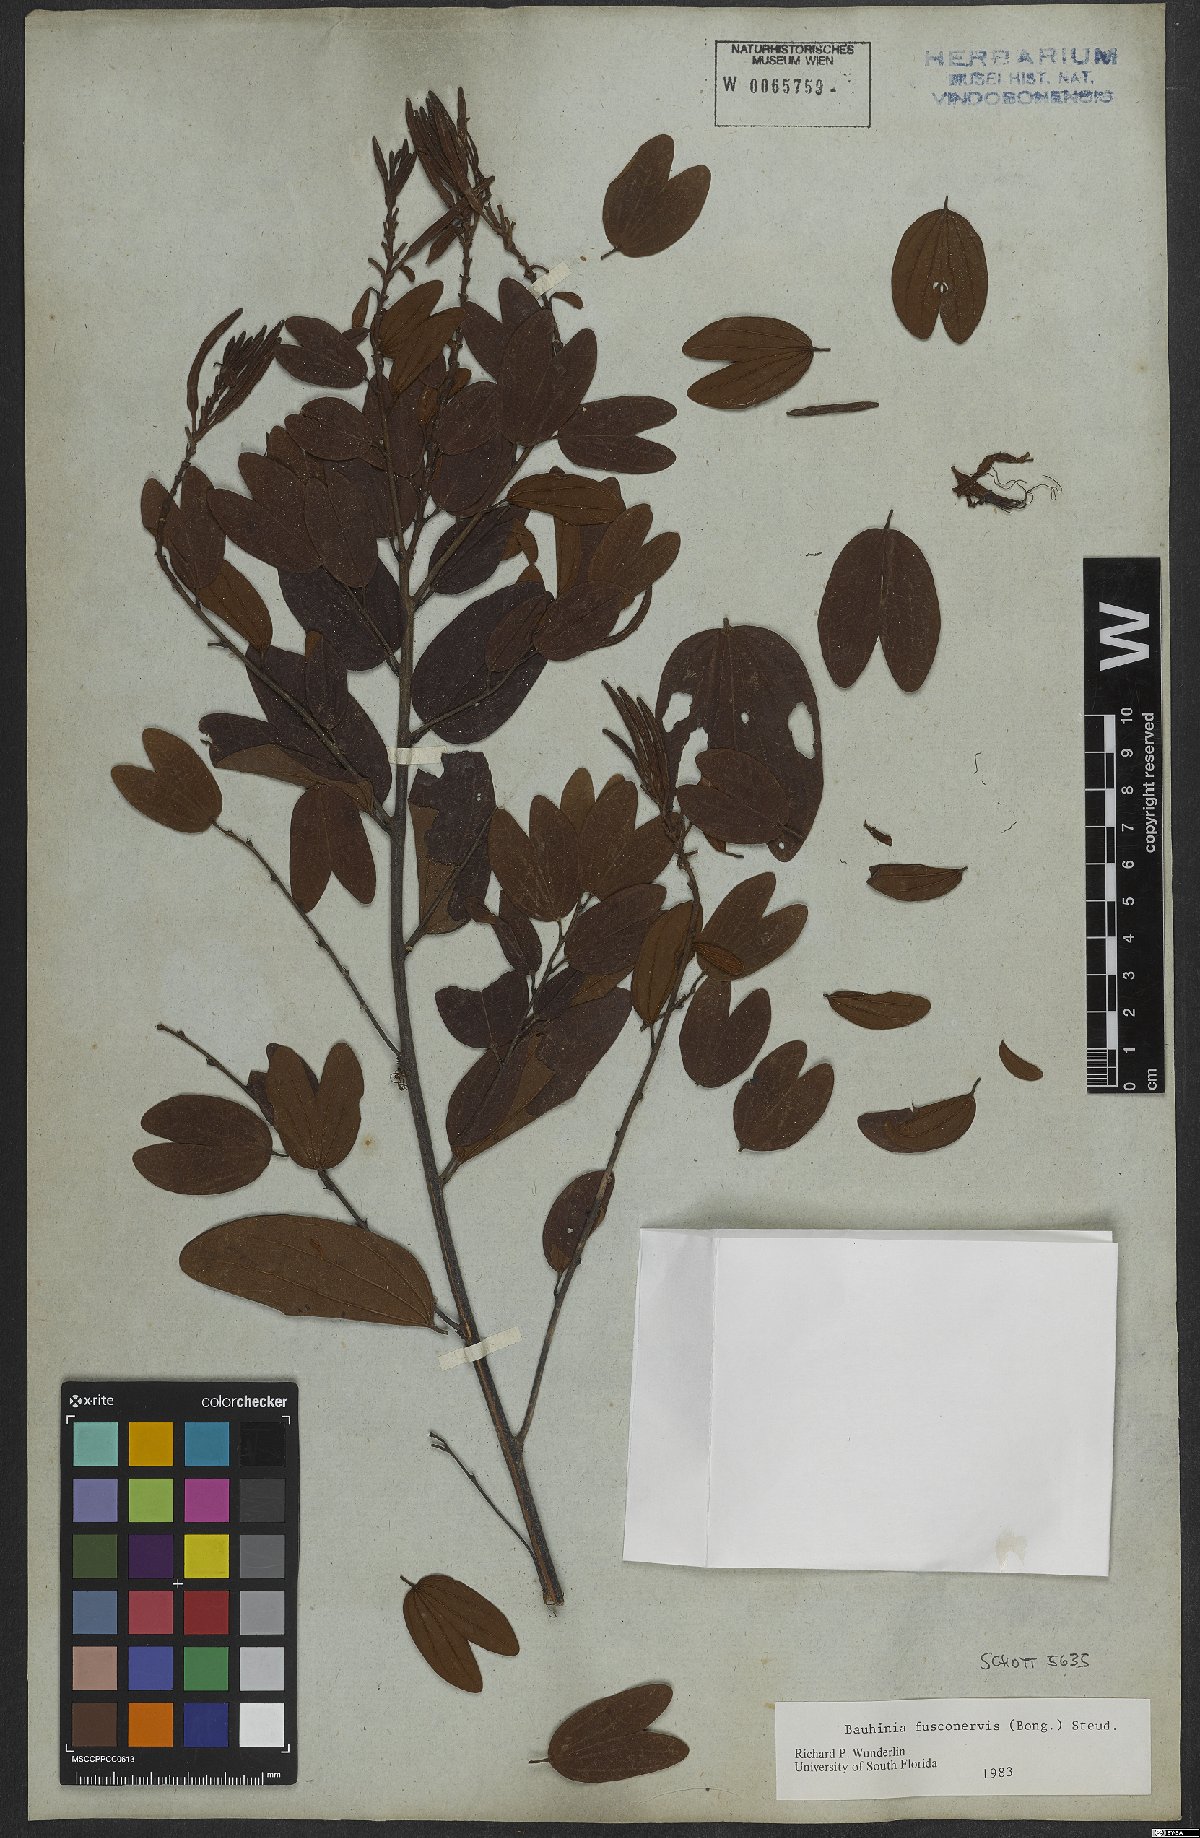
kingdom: Plantae
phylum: Tracheophyta
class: Magnoliopsida
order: Fabales
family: Fabaceae
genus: Bauhinia
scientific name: Bauhinia fusconervis
